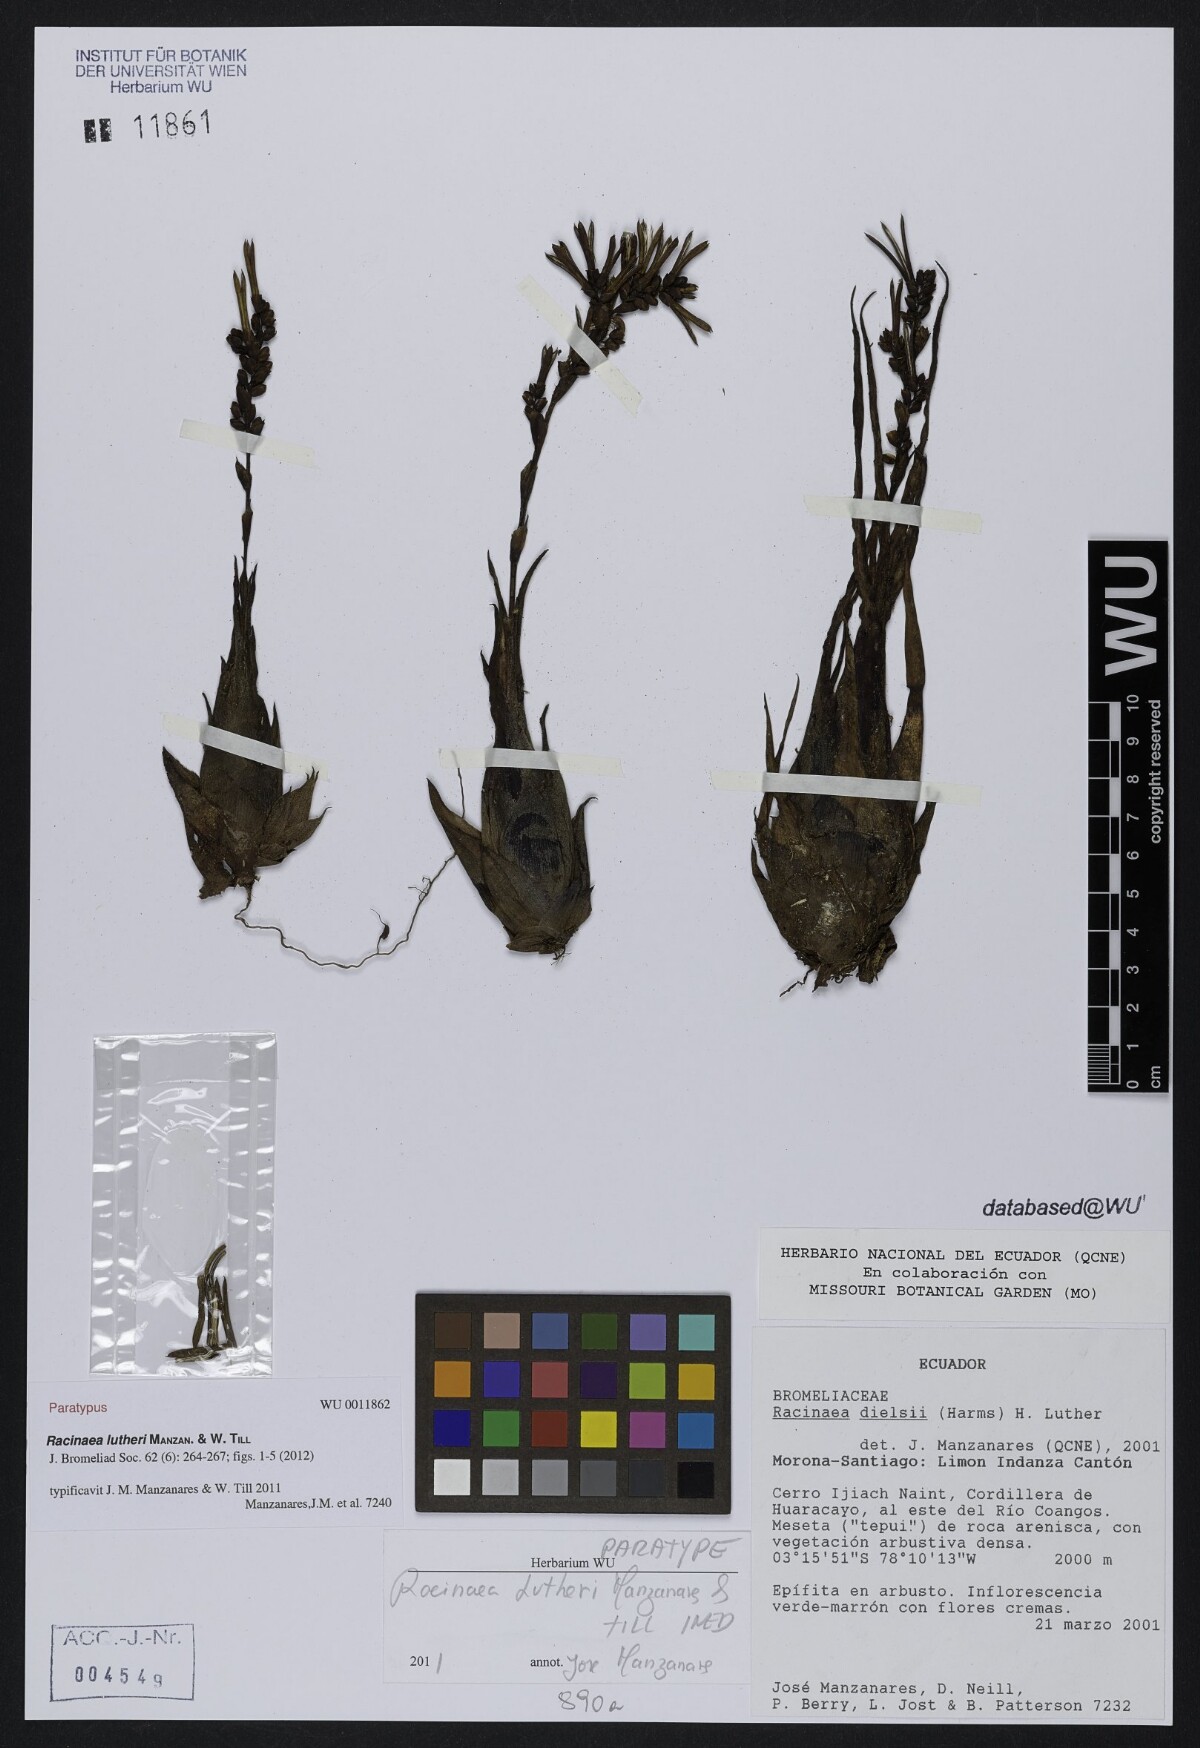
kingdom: Plantae
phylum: Tracheophyta
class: Liliopsida
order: Poales
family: Bromeliaceae
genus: Racinaea
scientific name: Racinaea lutheri
